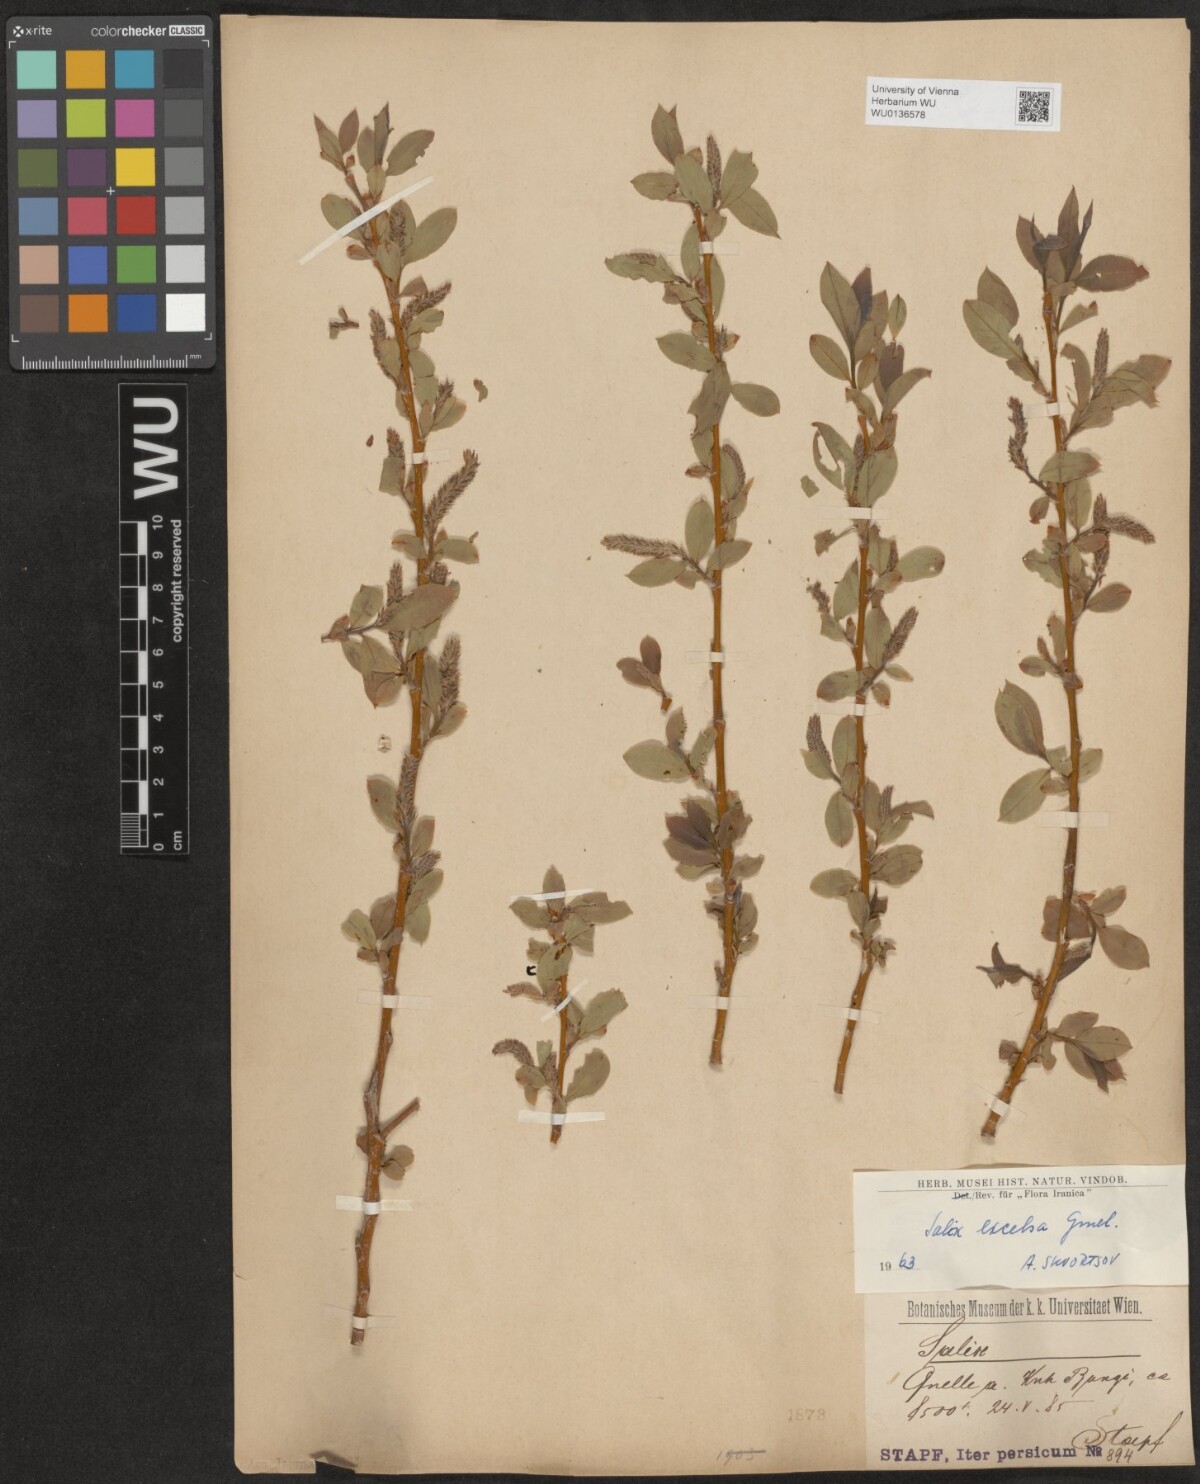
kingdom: Plantae
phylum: Tracheophyta
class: Magnoliopsida
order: Malpighiales
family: Salicaceae
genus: Salix
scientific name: Salix excelsa
